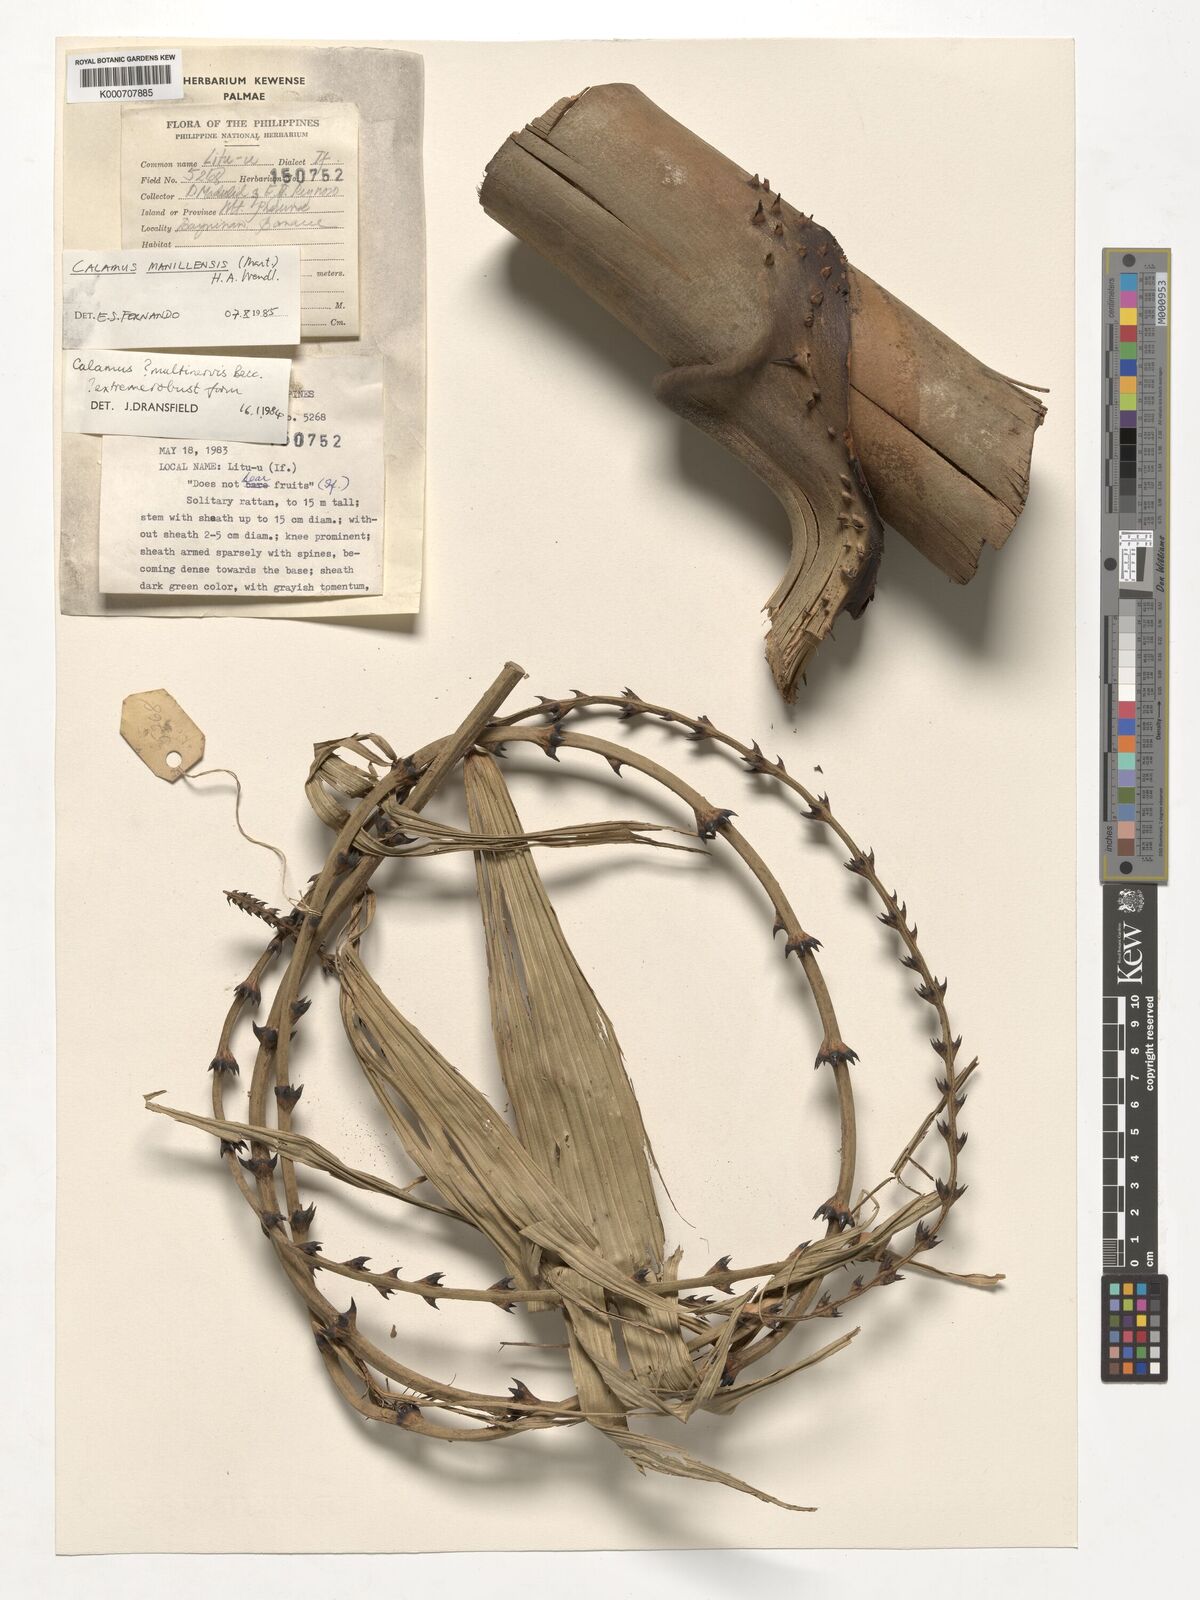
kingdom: Plantae
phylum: Tracheophyta
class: Liliopsida
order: Arecales
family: Arecaceae
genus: Calamus
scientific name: Calamus manillensis
